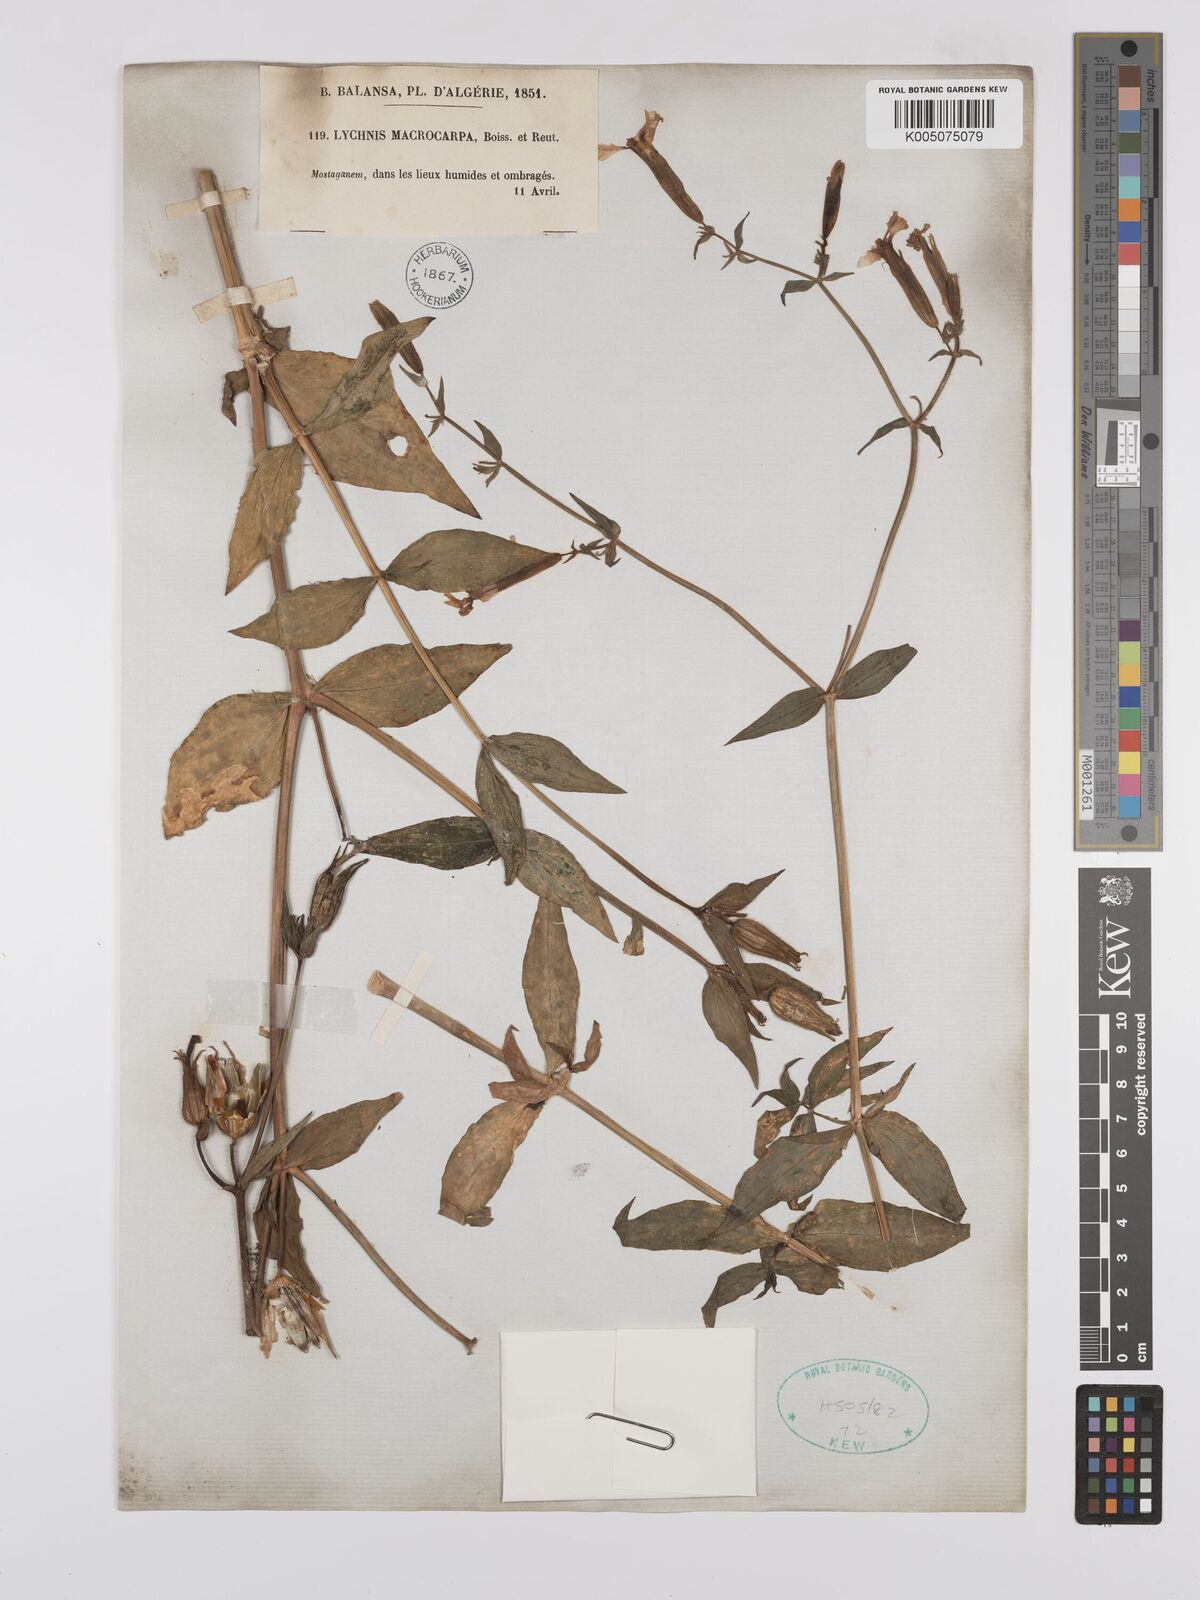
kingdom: Plantae
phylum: Tracheophyta
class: Magnoliopsida
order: Caryophyllales
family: Caryophyllaceae
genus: Silene
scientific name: Silene
